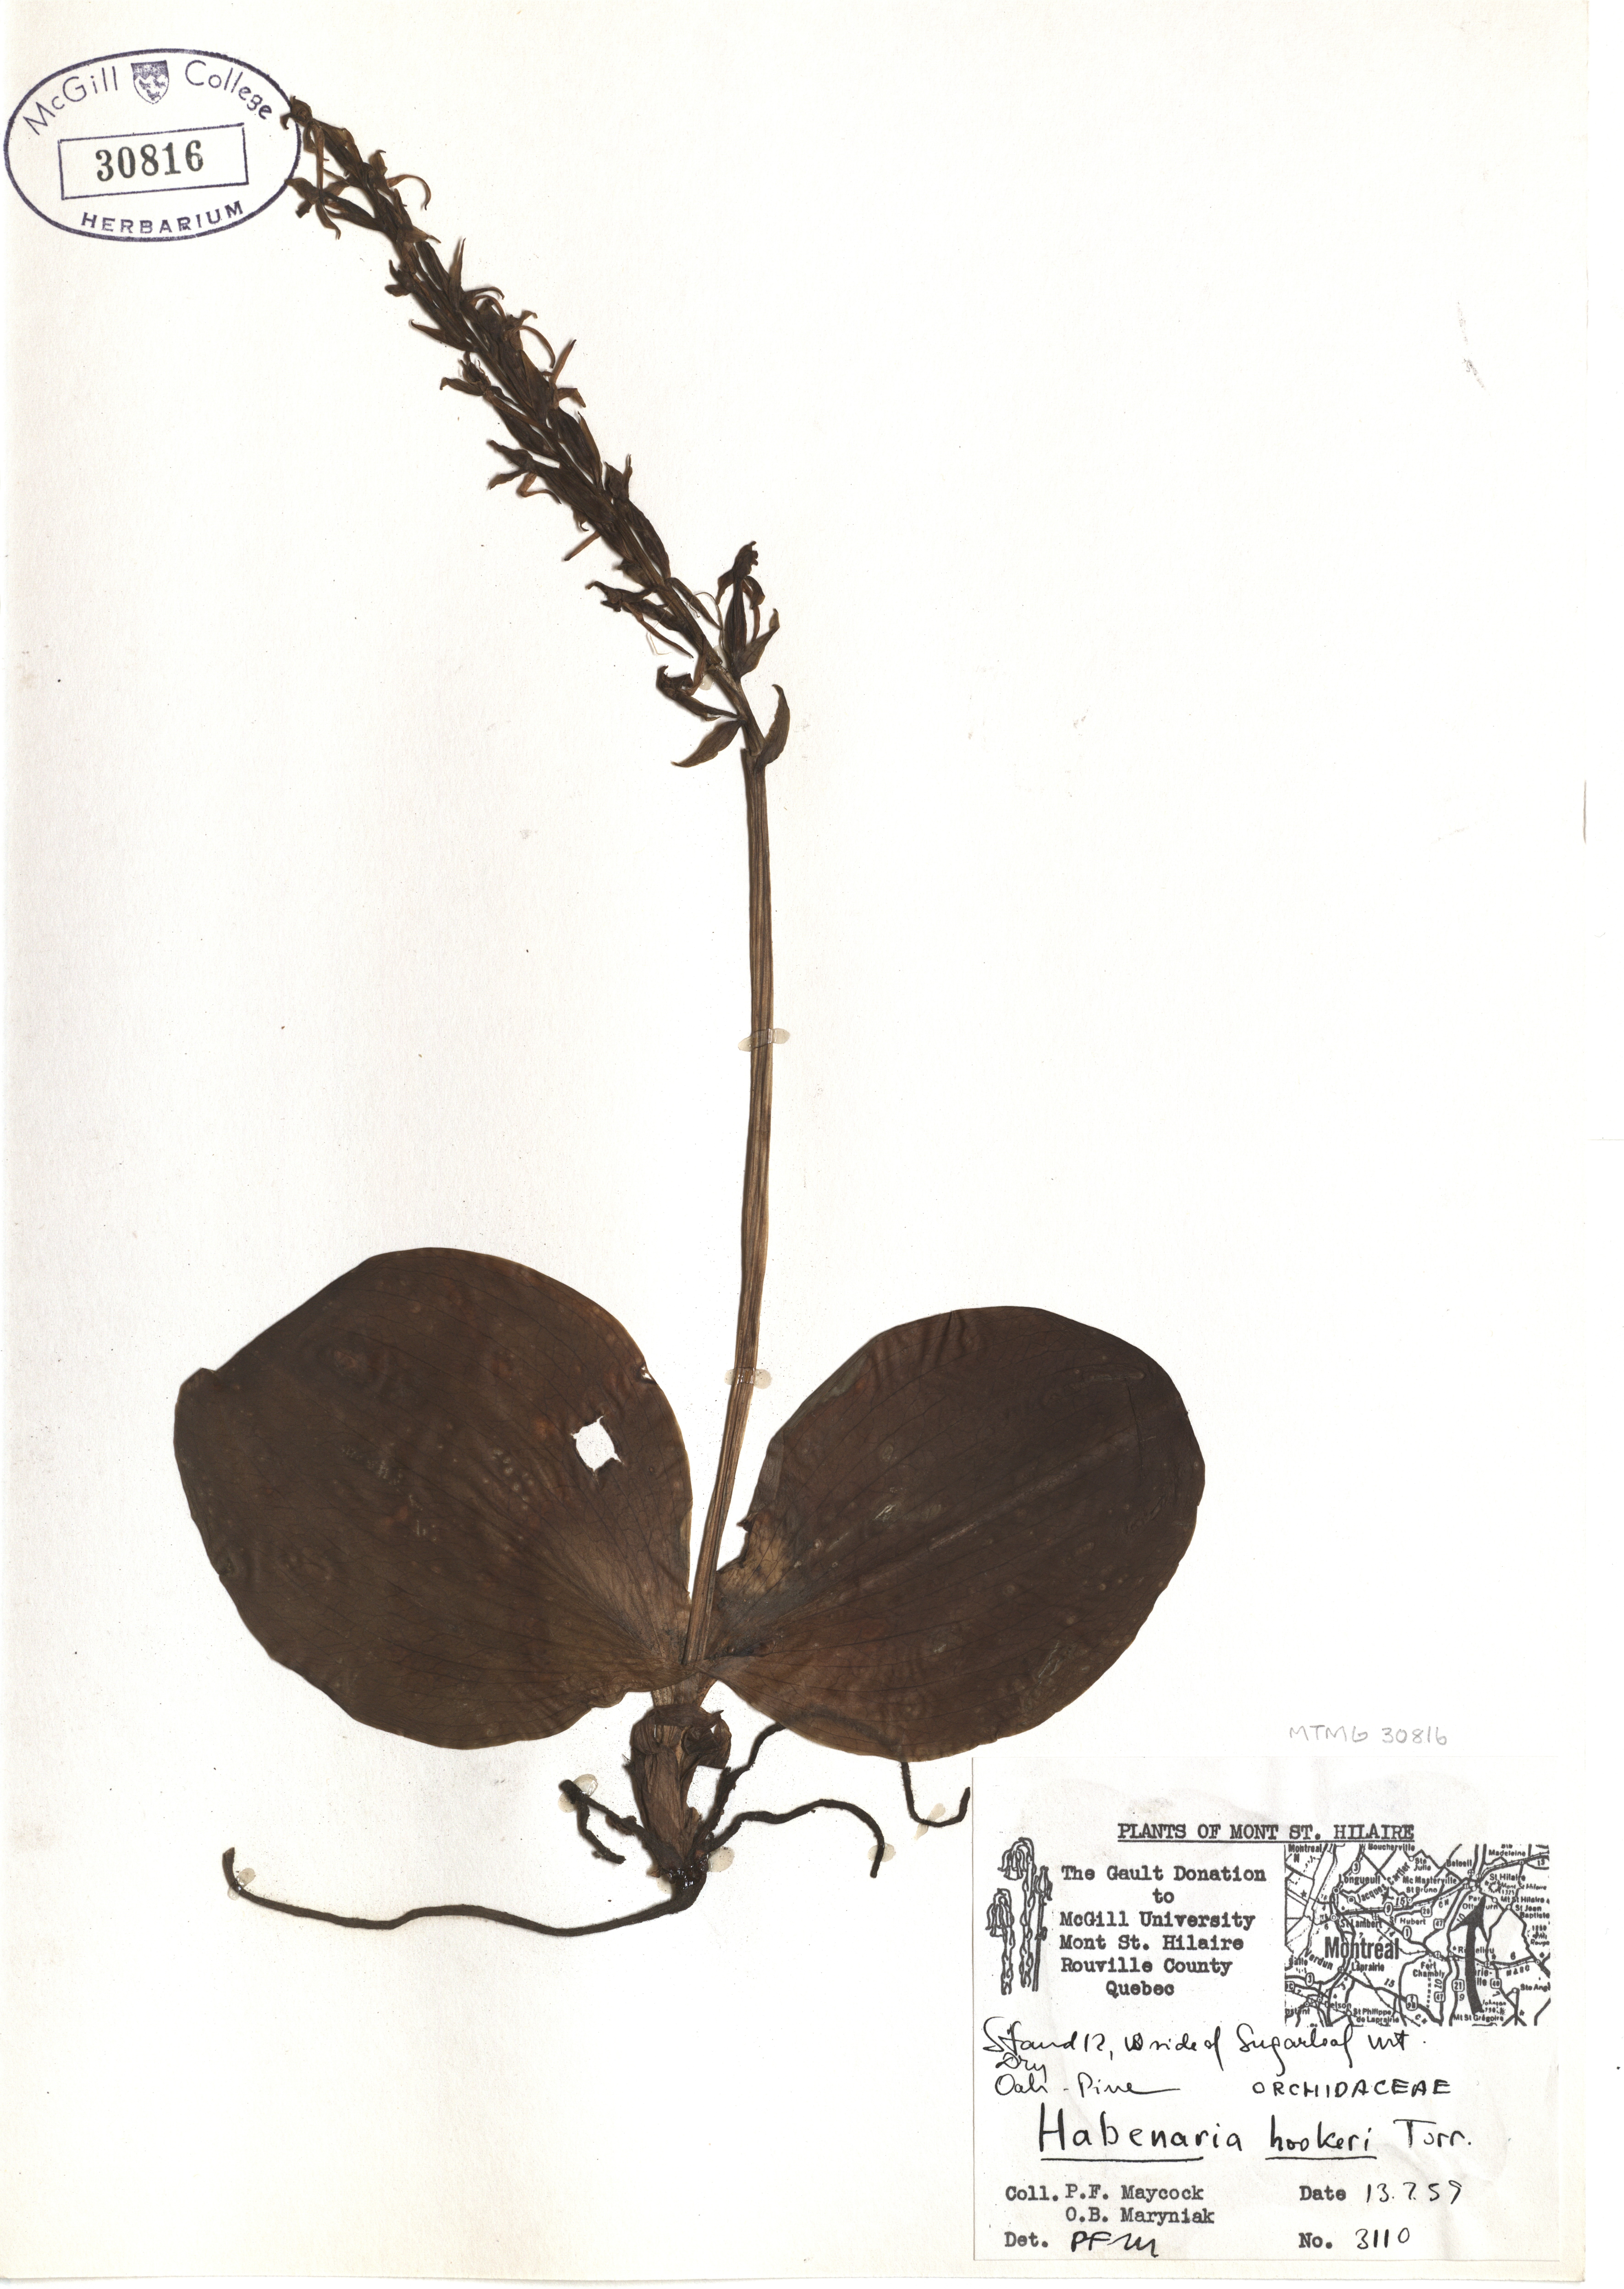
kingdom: Plantae
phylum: Tracheophyta
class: Liliopsida
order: Asparagales
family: Orchidaceae
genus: Platanthera
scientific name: Platanthera hookeri
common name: Hooker's orchid
